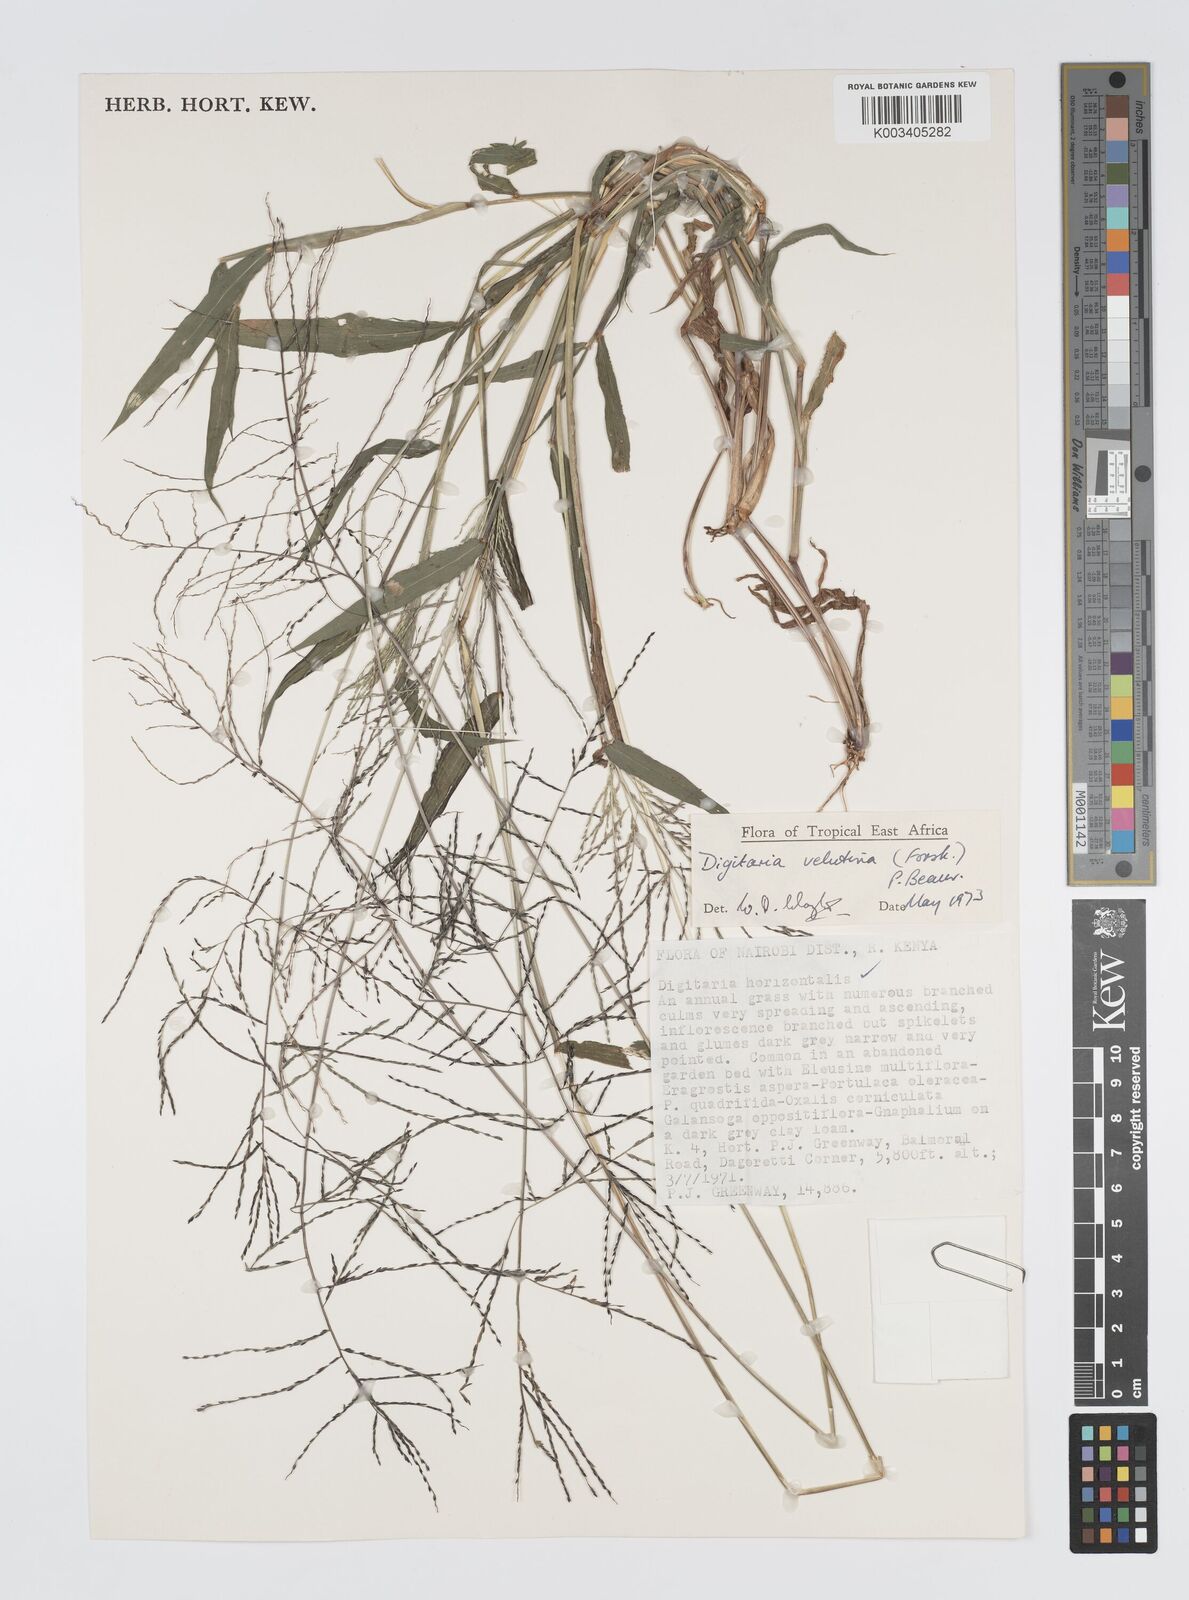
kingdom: Plantae
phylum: Tracheophyta
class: Liliopsida
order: Poales
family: Poaceae
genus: Digitaria
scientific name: Digitaria velutina
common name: Long-plume finger grass
